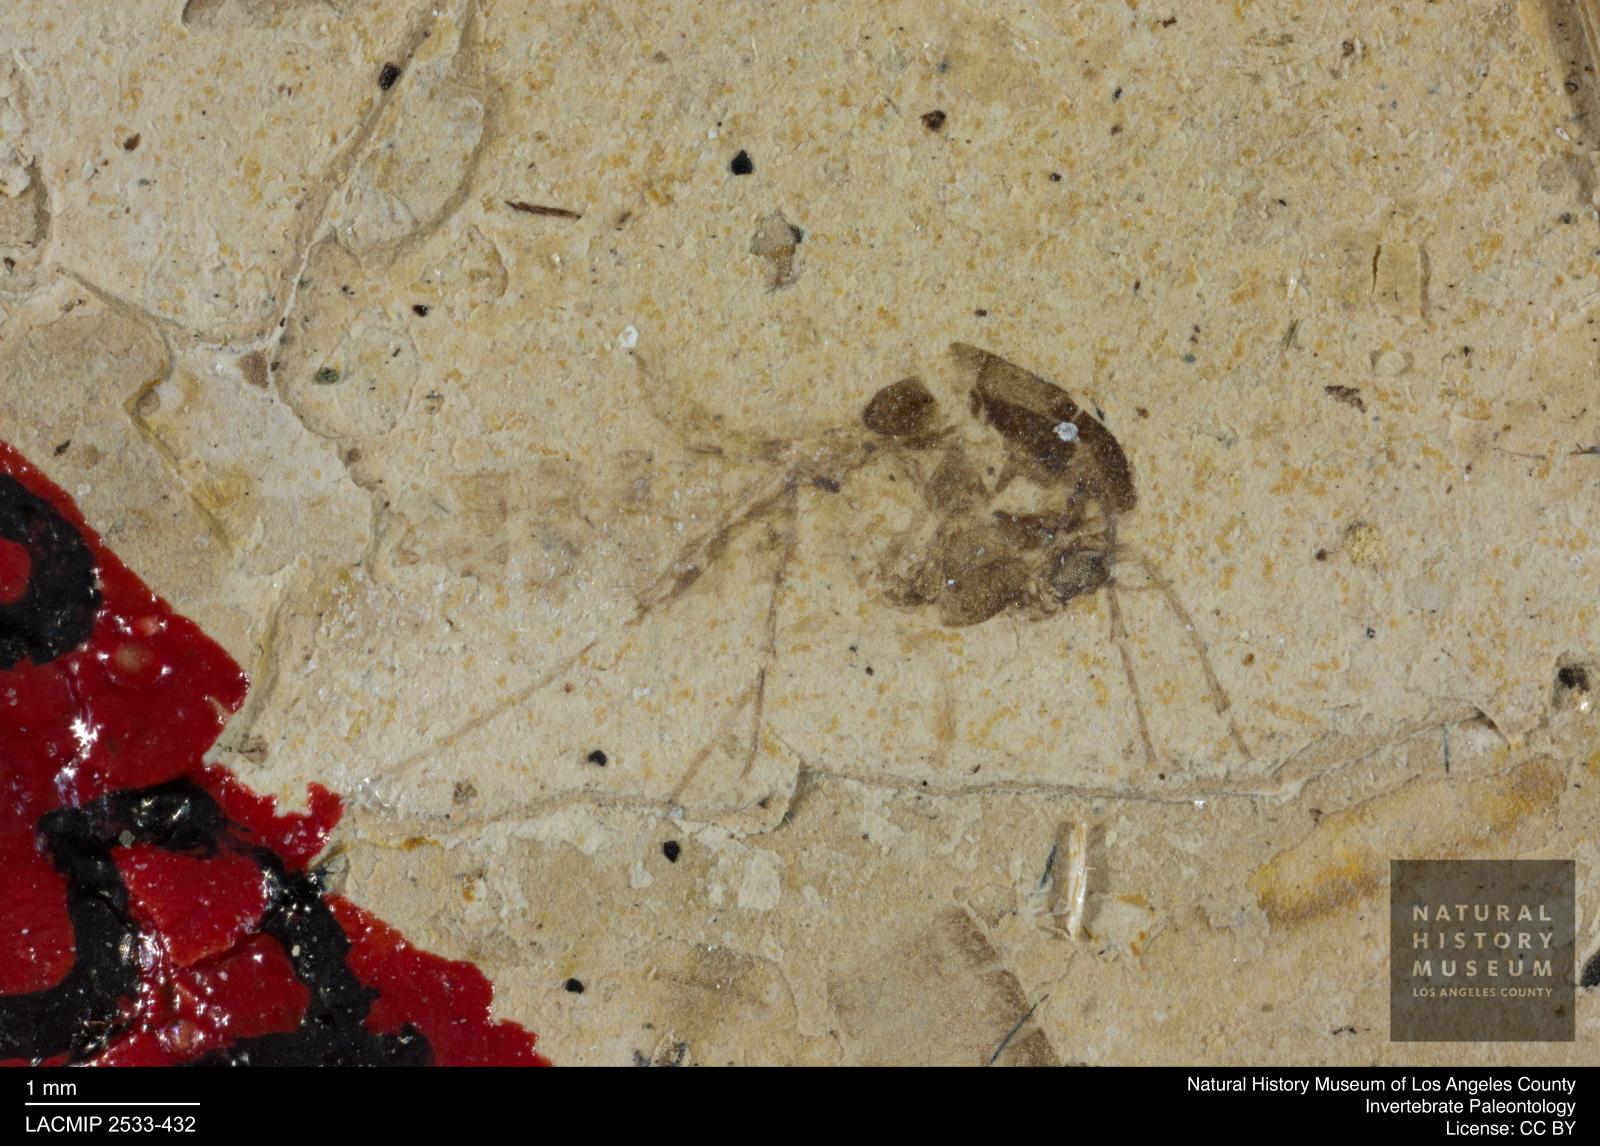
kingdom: Animalia
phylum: Arthropoda
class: Insecta
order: Diptera
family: Chironomidae
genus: Tanypus
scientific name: Tanypus thienemanni
